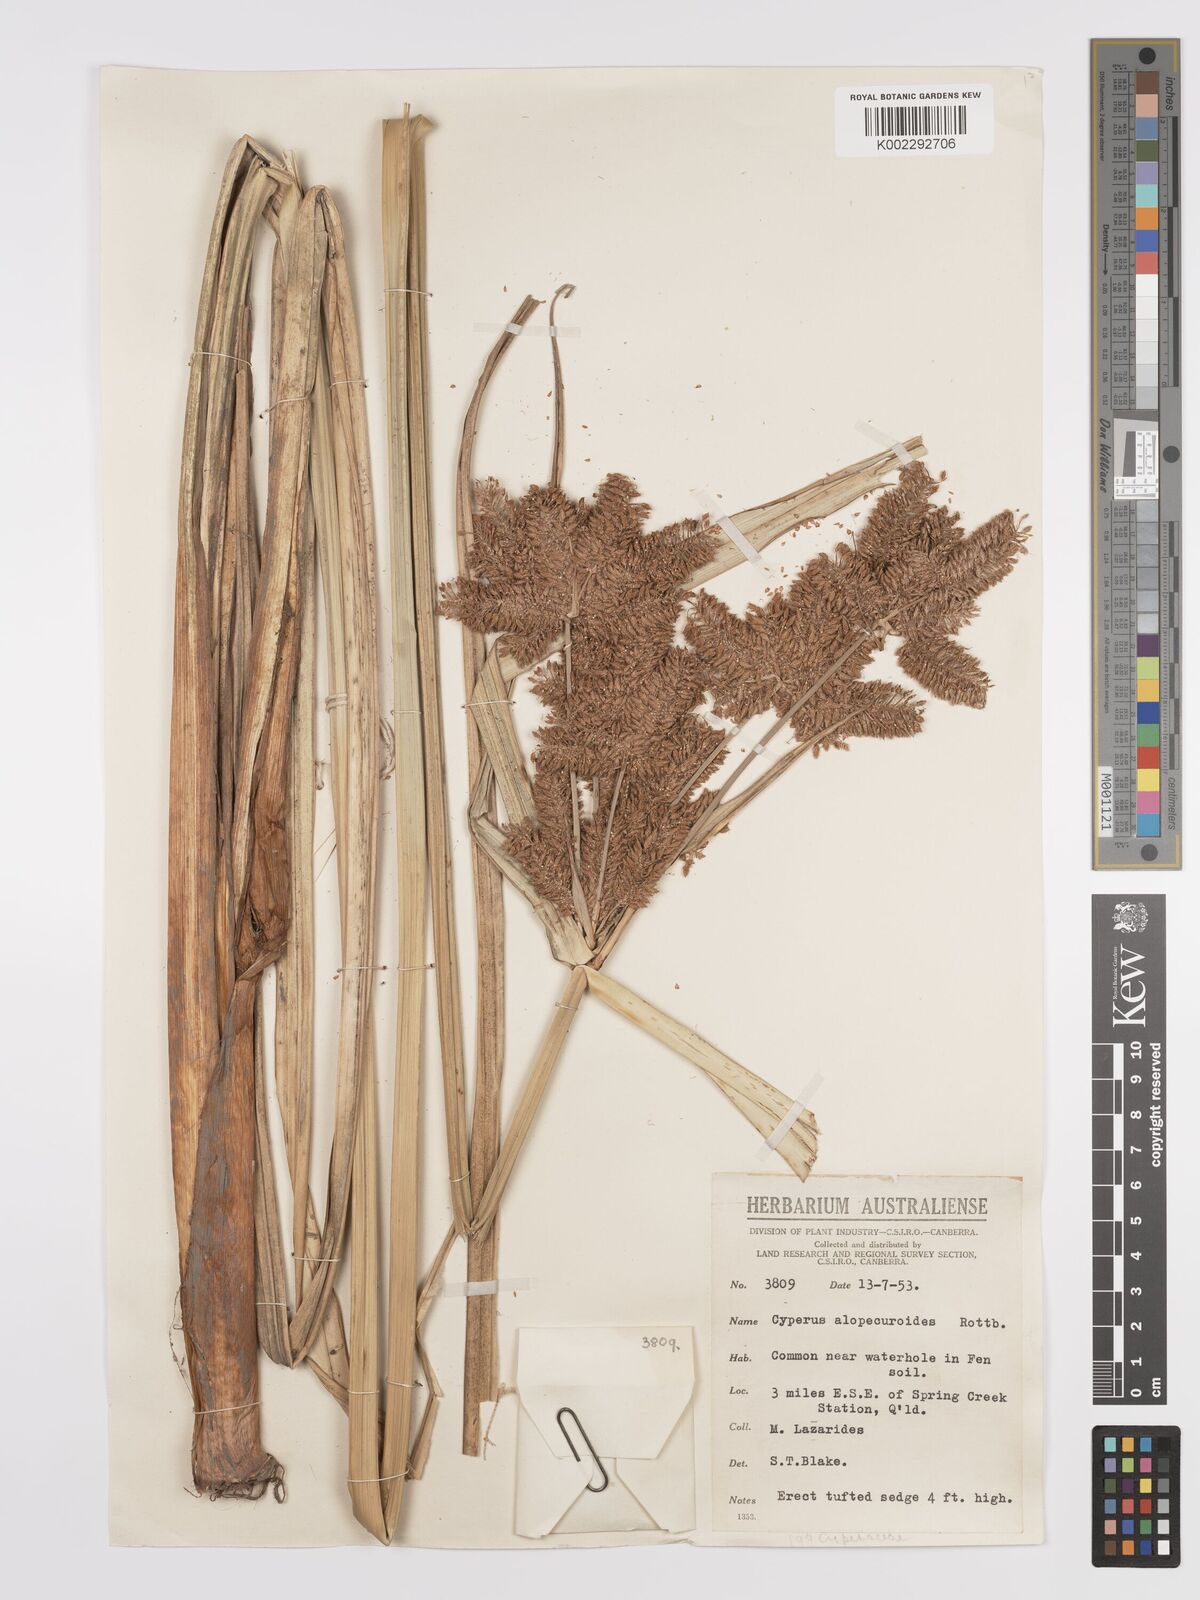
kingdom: Plantae
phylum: Tracheophyta
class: Liliopsida
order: Poales
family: Cyperaceae
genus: Cyperus
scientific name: Cyperus alopecuroides
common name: Foxtail flatsedge
